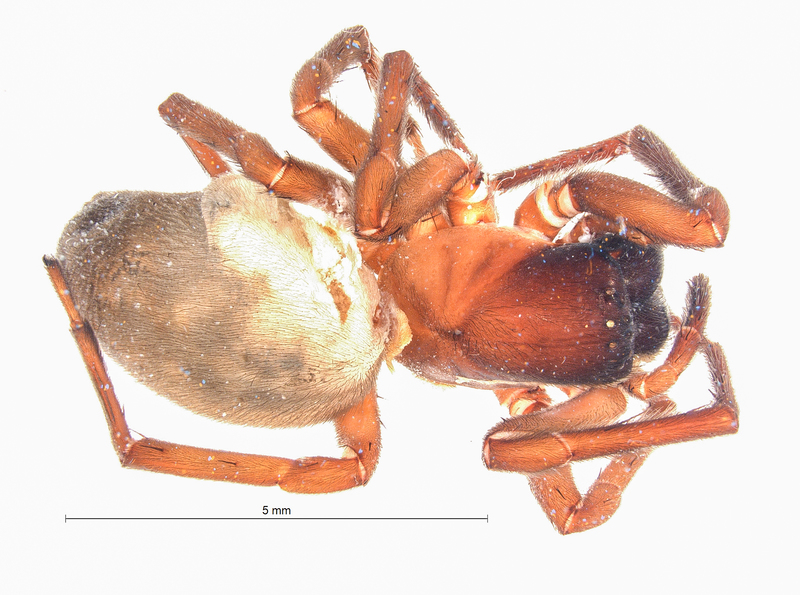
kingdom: Animalia
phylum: Arthropoda
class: Arachnida
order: Araneae
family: Amaurobiidae
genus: Amaurobius
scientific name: Amaurobius ferox
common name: Black laceweaver
